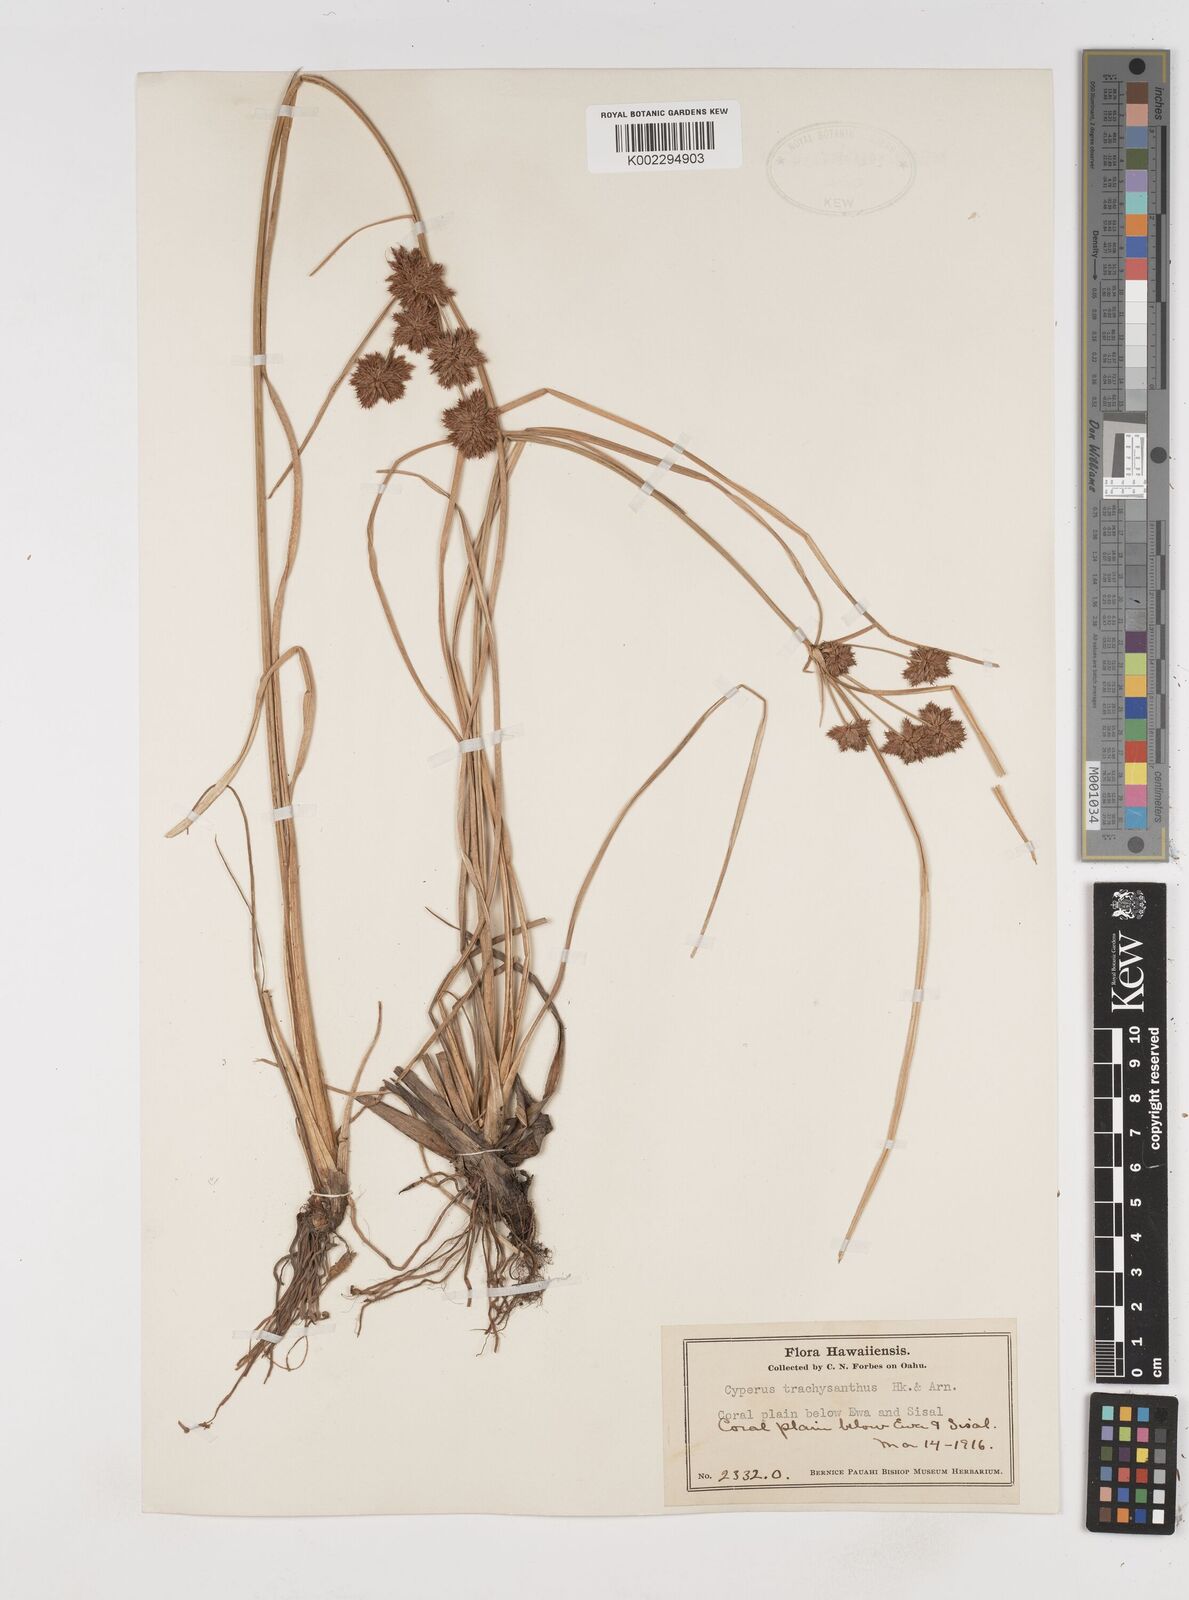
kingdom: Plantae
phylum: Tracheophyta
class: Liliopsida
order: Poales
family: Cyperaceae
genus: Cyperus
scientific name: Cyperus trachysanthos
